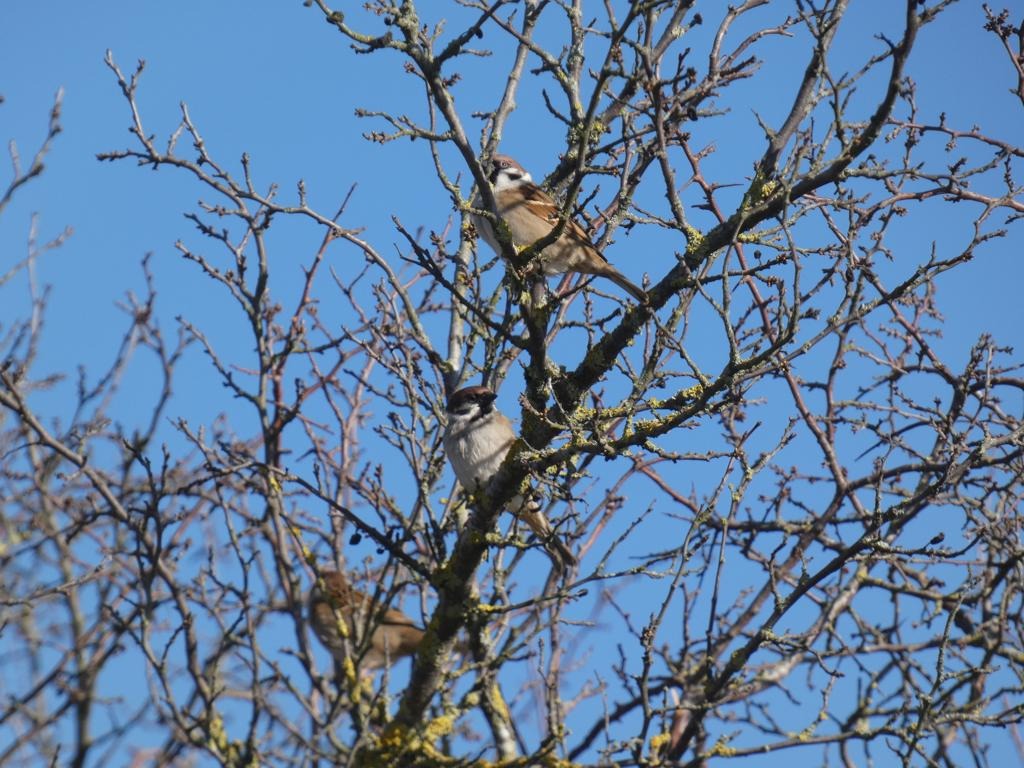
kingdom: Animalia
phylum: Chordata
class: Aves
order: Passeriformes
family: Passeridae
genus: Passer
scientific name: Passer montanus
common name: Skovspurv
